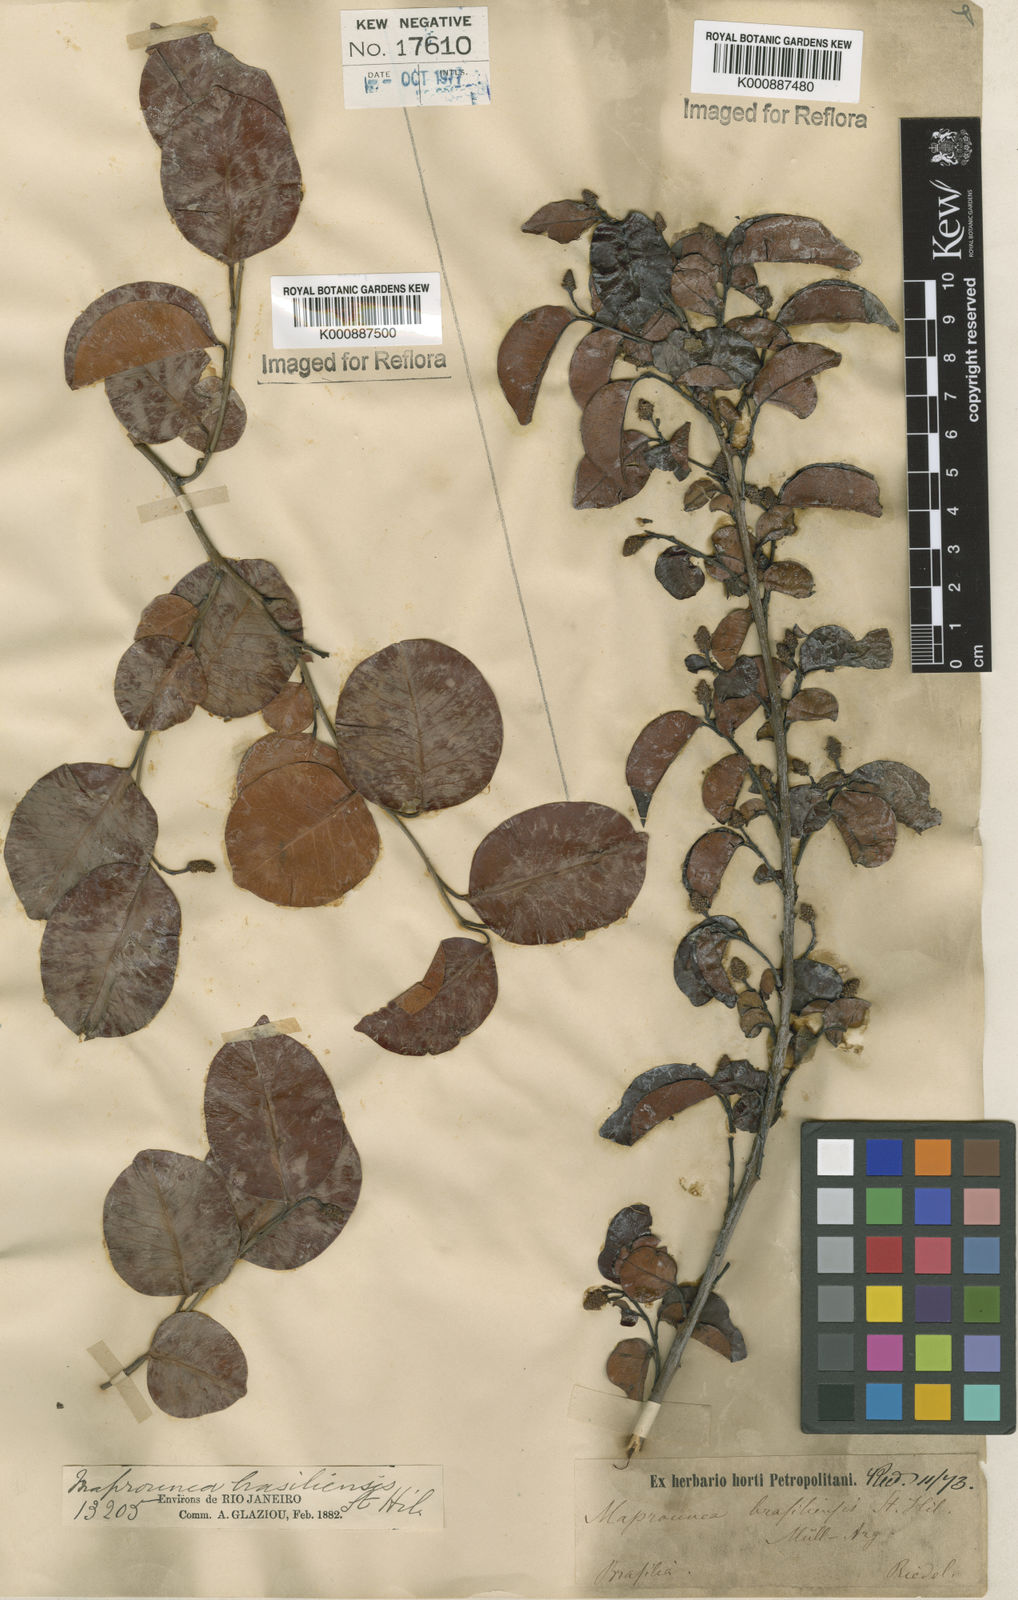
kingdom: Plantae
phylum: Tracheophyta
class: Magnoliopsida
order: Malpighiales
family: Euphorbiaceae
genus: Maprounea
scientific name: Maprounea brasiliensis
